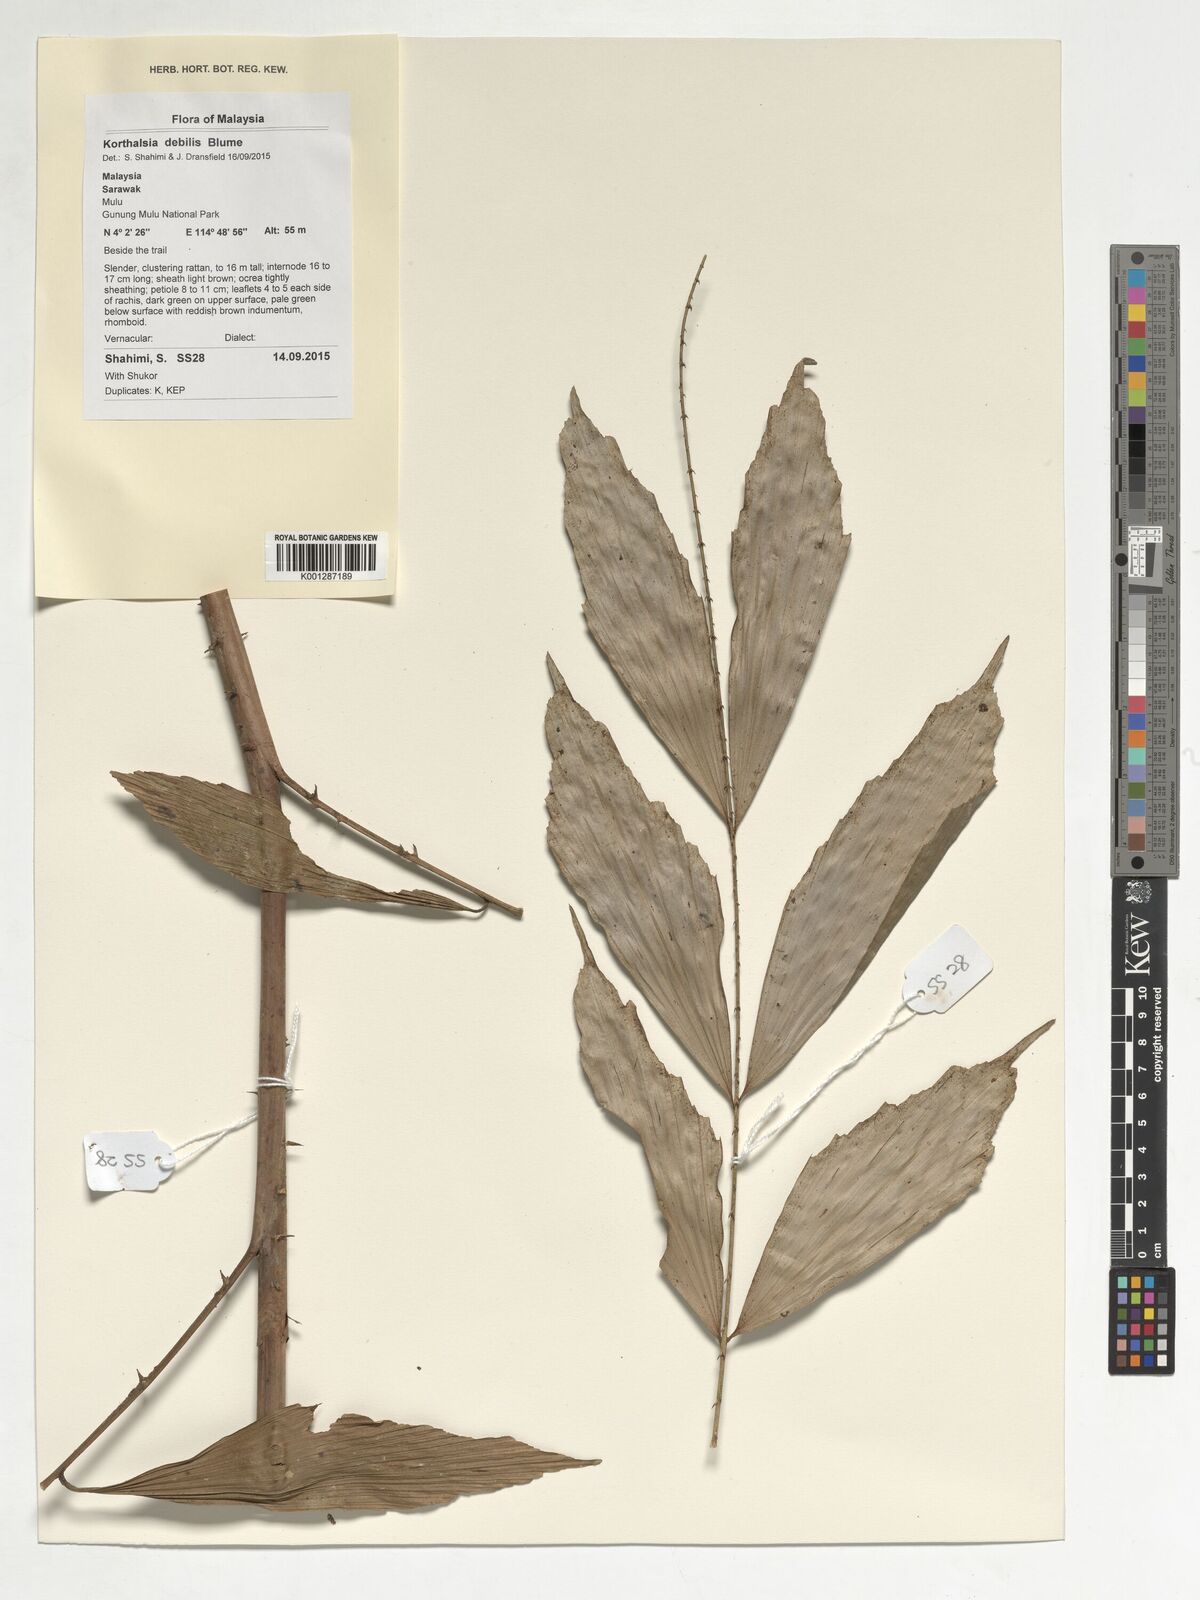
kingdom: Plantae
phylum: Tracheophyta
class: Liliopsida
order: Arecales
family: Arecaceae
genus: Korthalsia
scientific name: Korthalsia debilis
